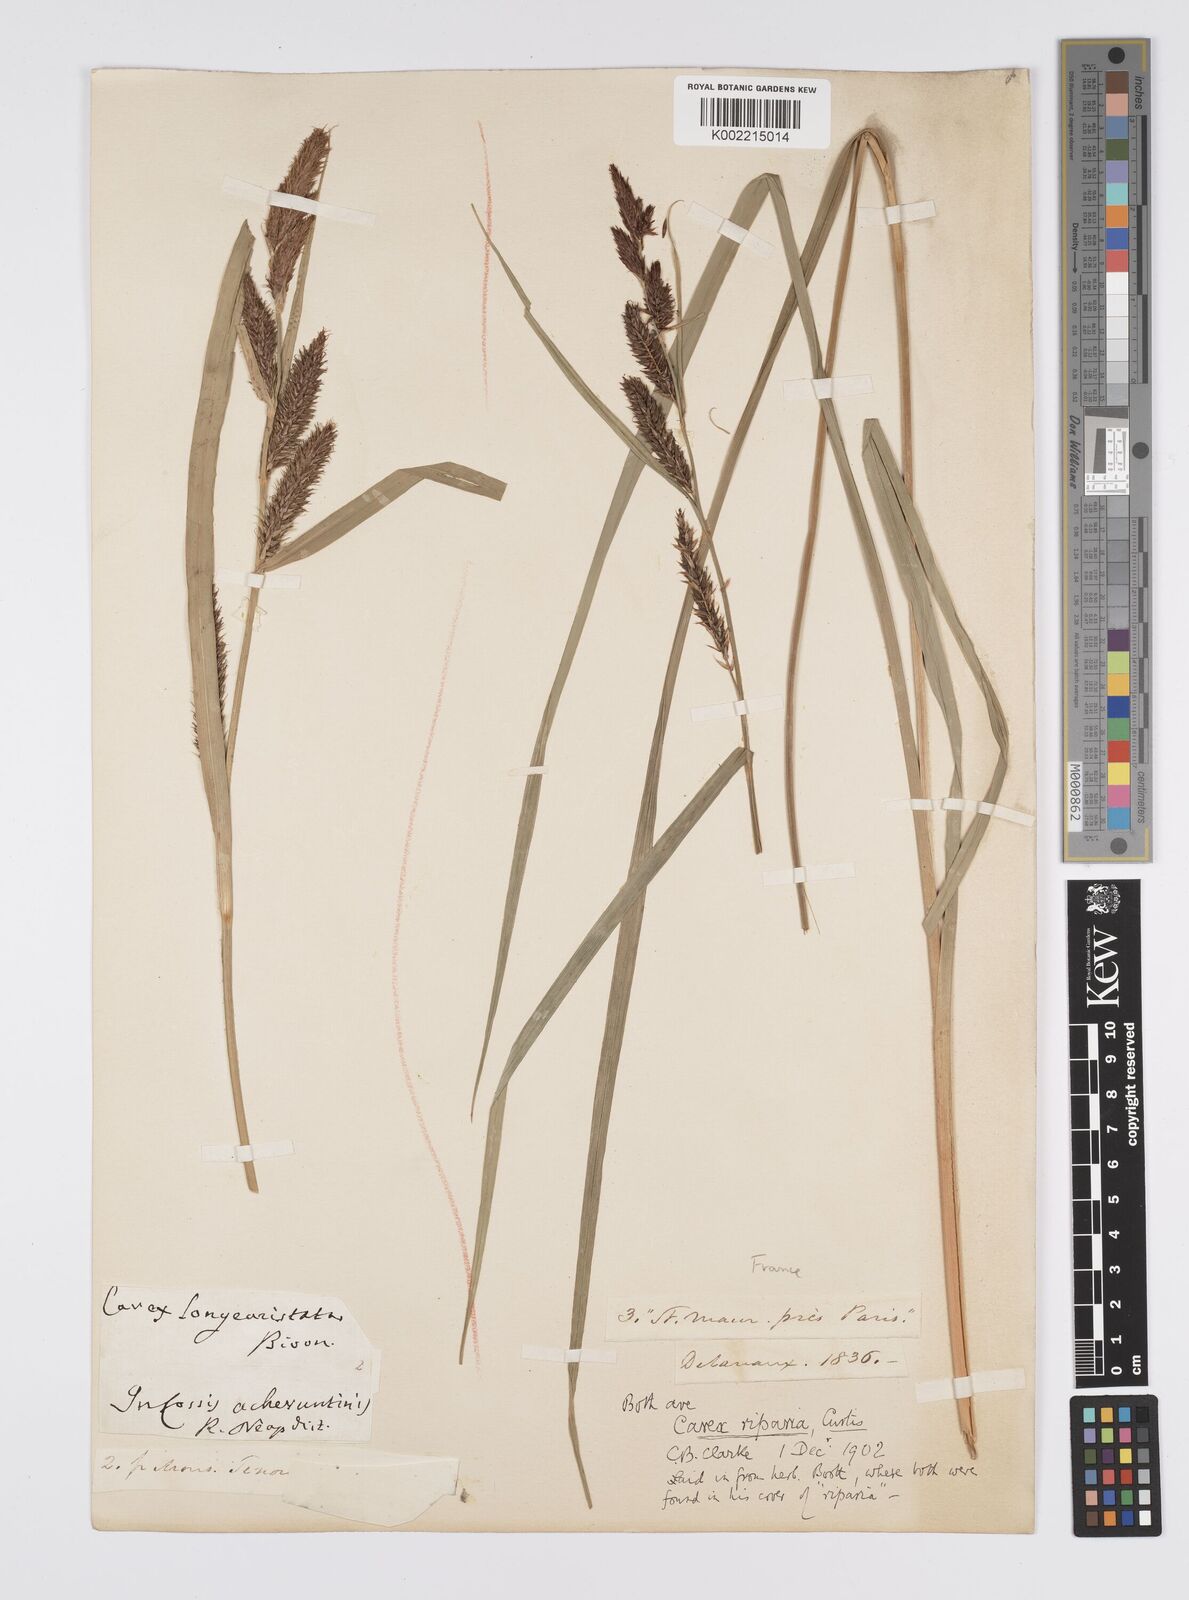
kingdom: Plantae
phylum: Tracheophyta
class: Liliopsida
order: Poales
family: Cyperaceae
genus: Carex
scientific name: Carex riparia
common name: Greater pond-sedge
